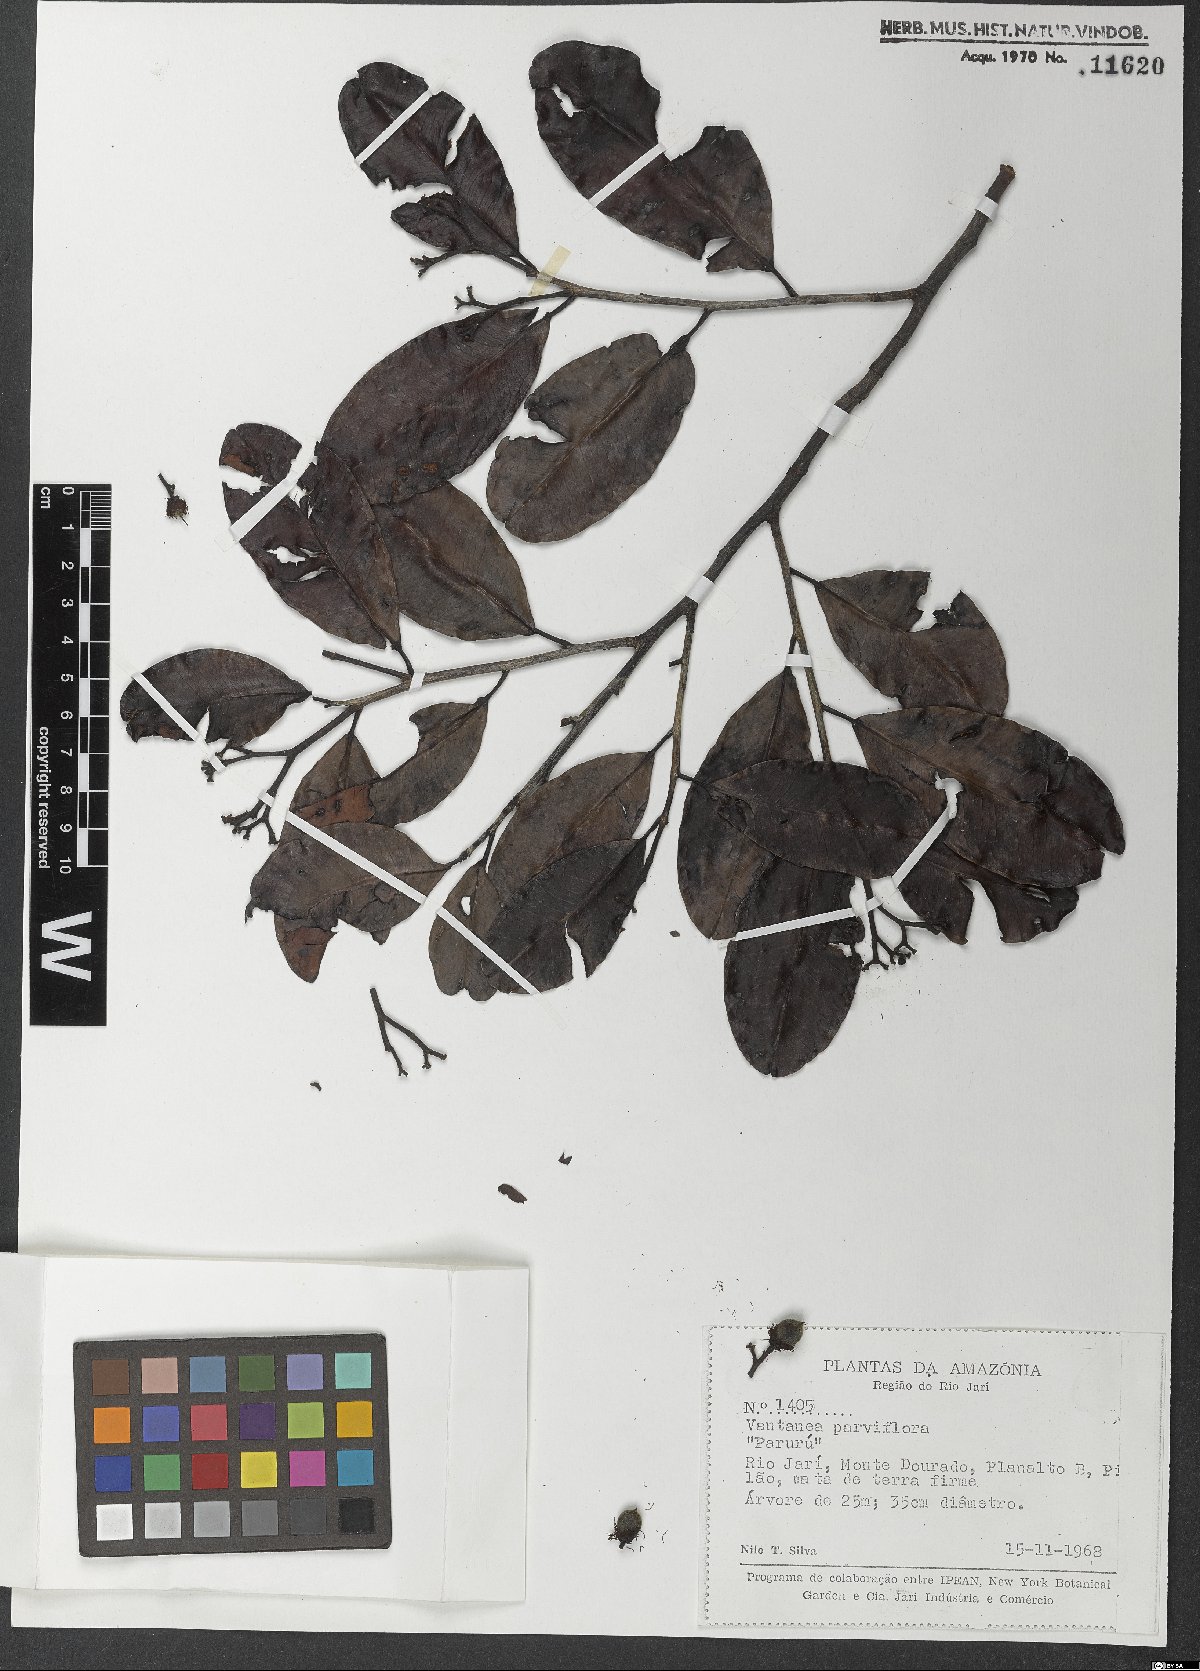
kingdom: Plantae
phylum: Tracheophyta
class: Magnoliopsida
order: Malpighiales
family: Humiriaceae
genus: Vantanea
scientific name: Vantanea parviflora
